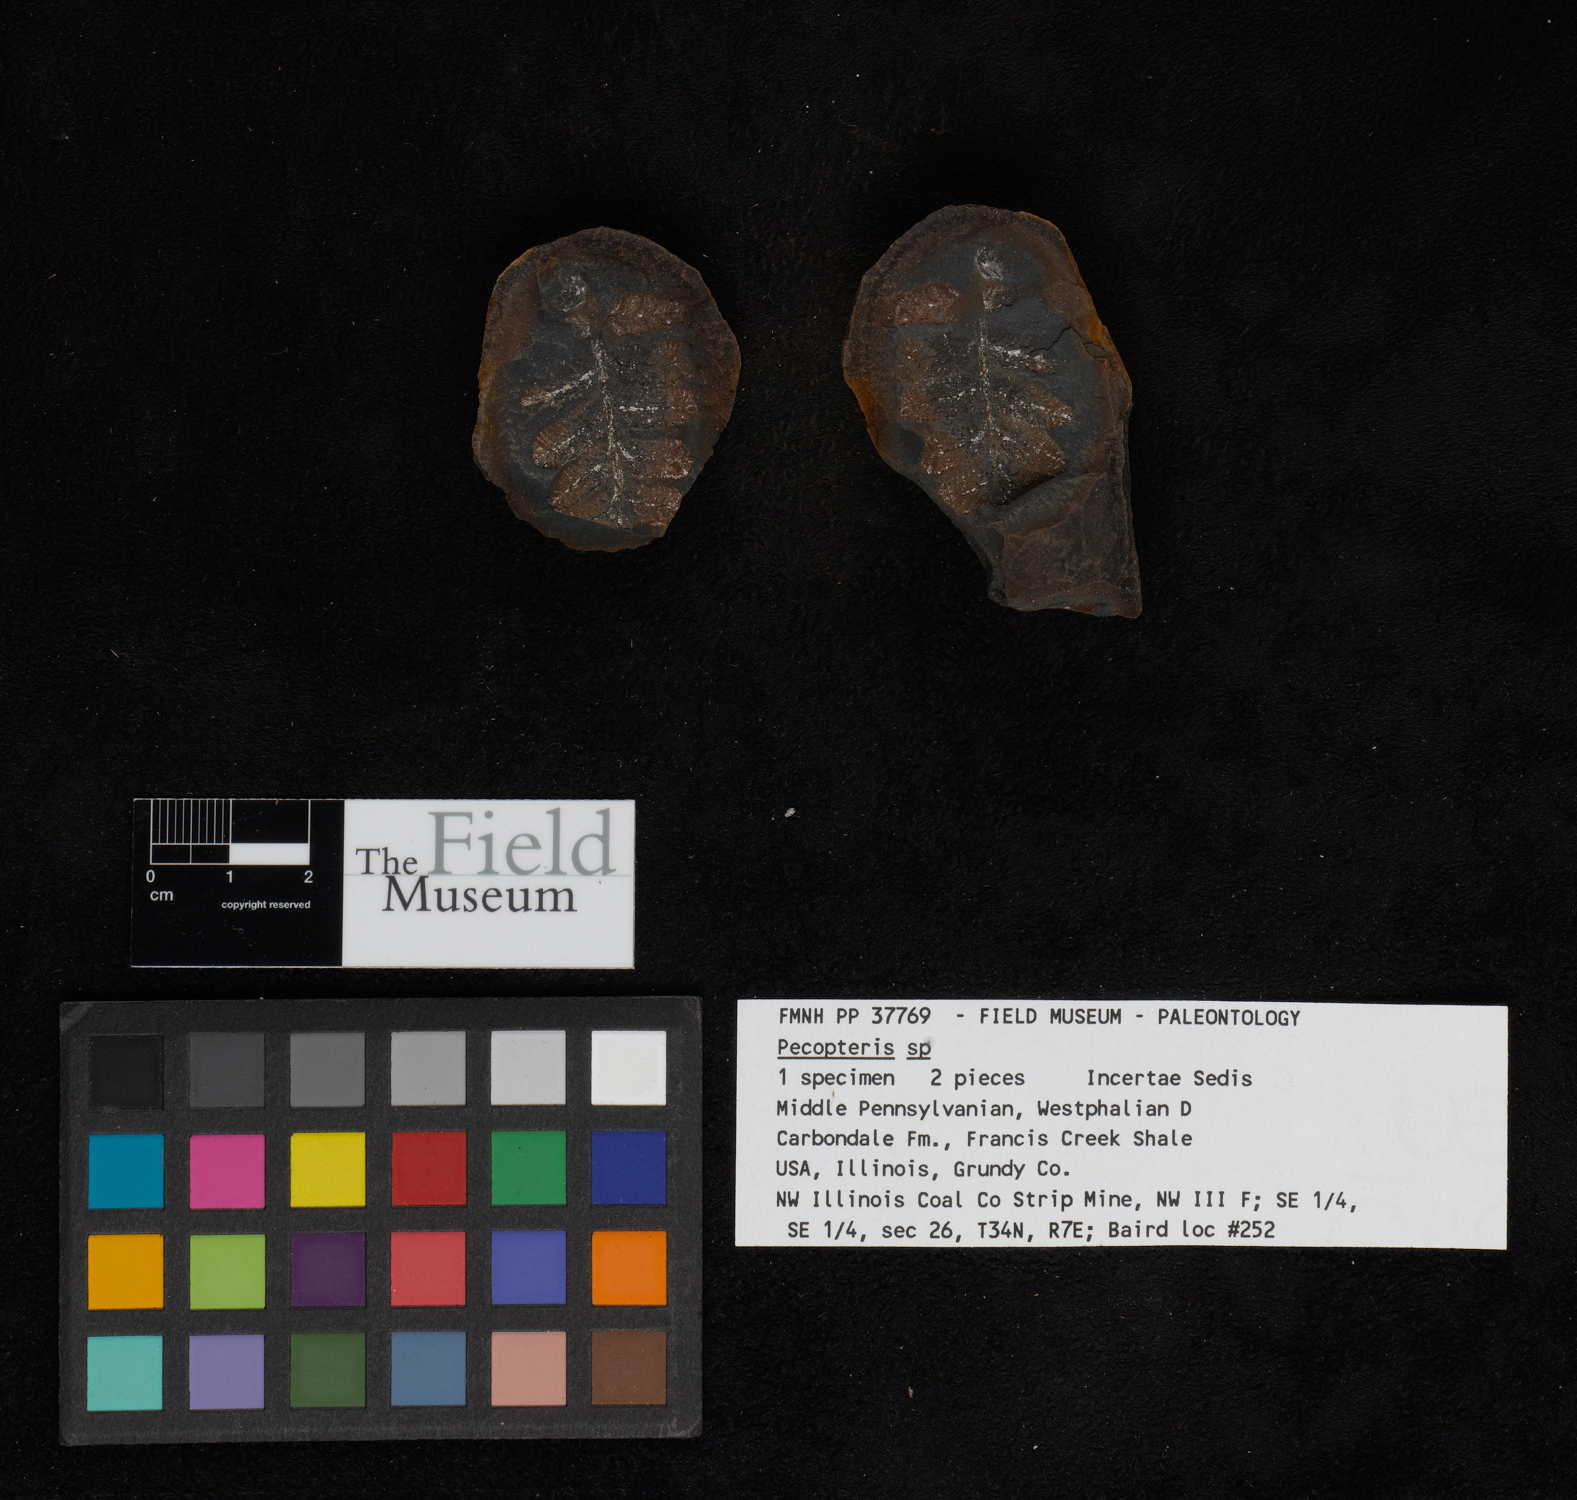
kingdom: Plantae
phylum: Tracheophyta
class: Polypodiopsida
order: Marattiales
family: Asterothecaceae
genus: Pecopteris
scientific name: Pecopteris
